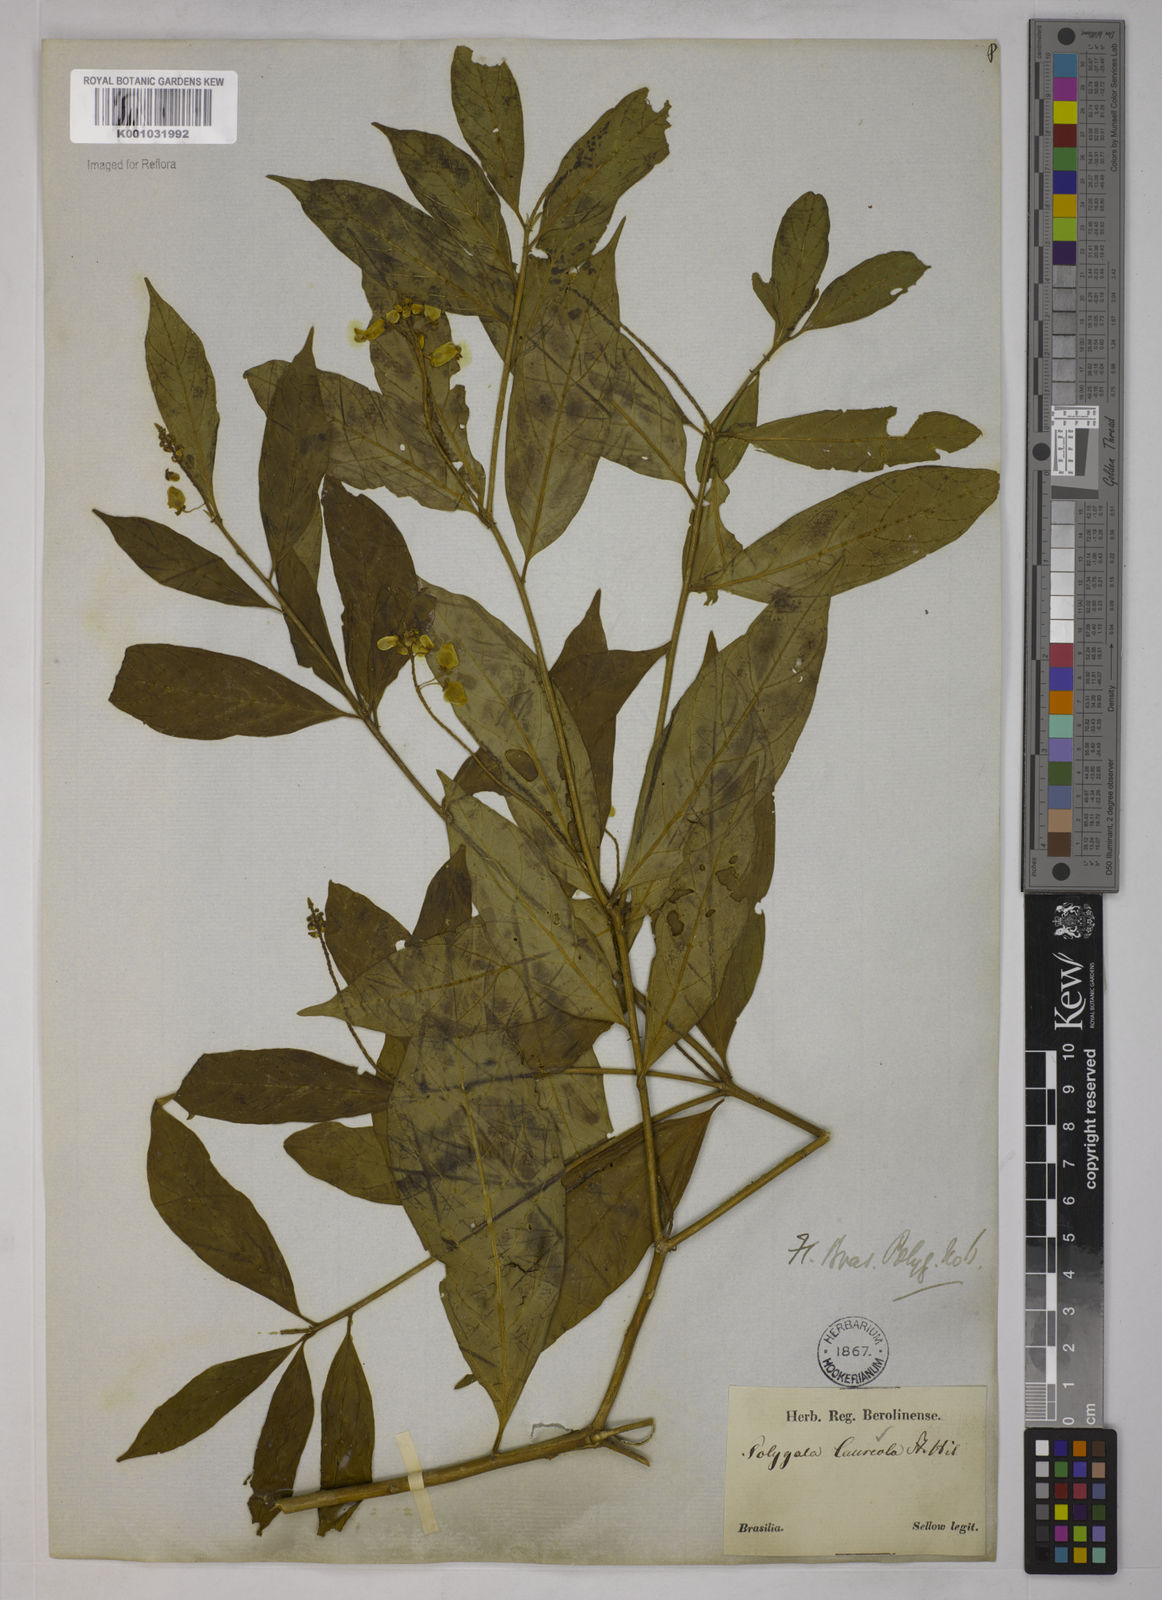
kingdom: Plantae
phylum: Tracheophyta
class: Magnoliopsida
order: Fabales
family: Polygalaceae
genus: Caamembeca
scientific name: Caamembeca salicifolia
